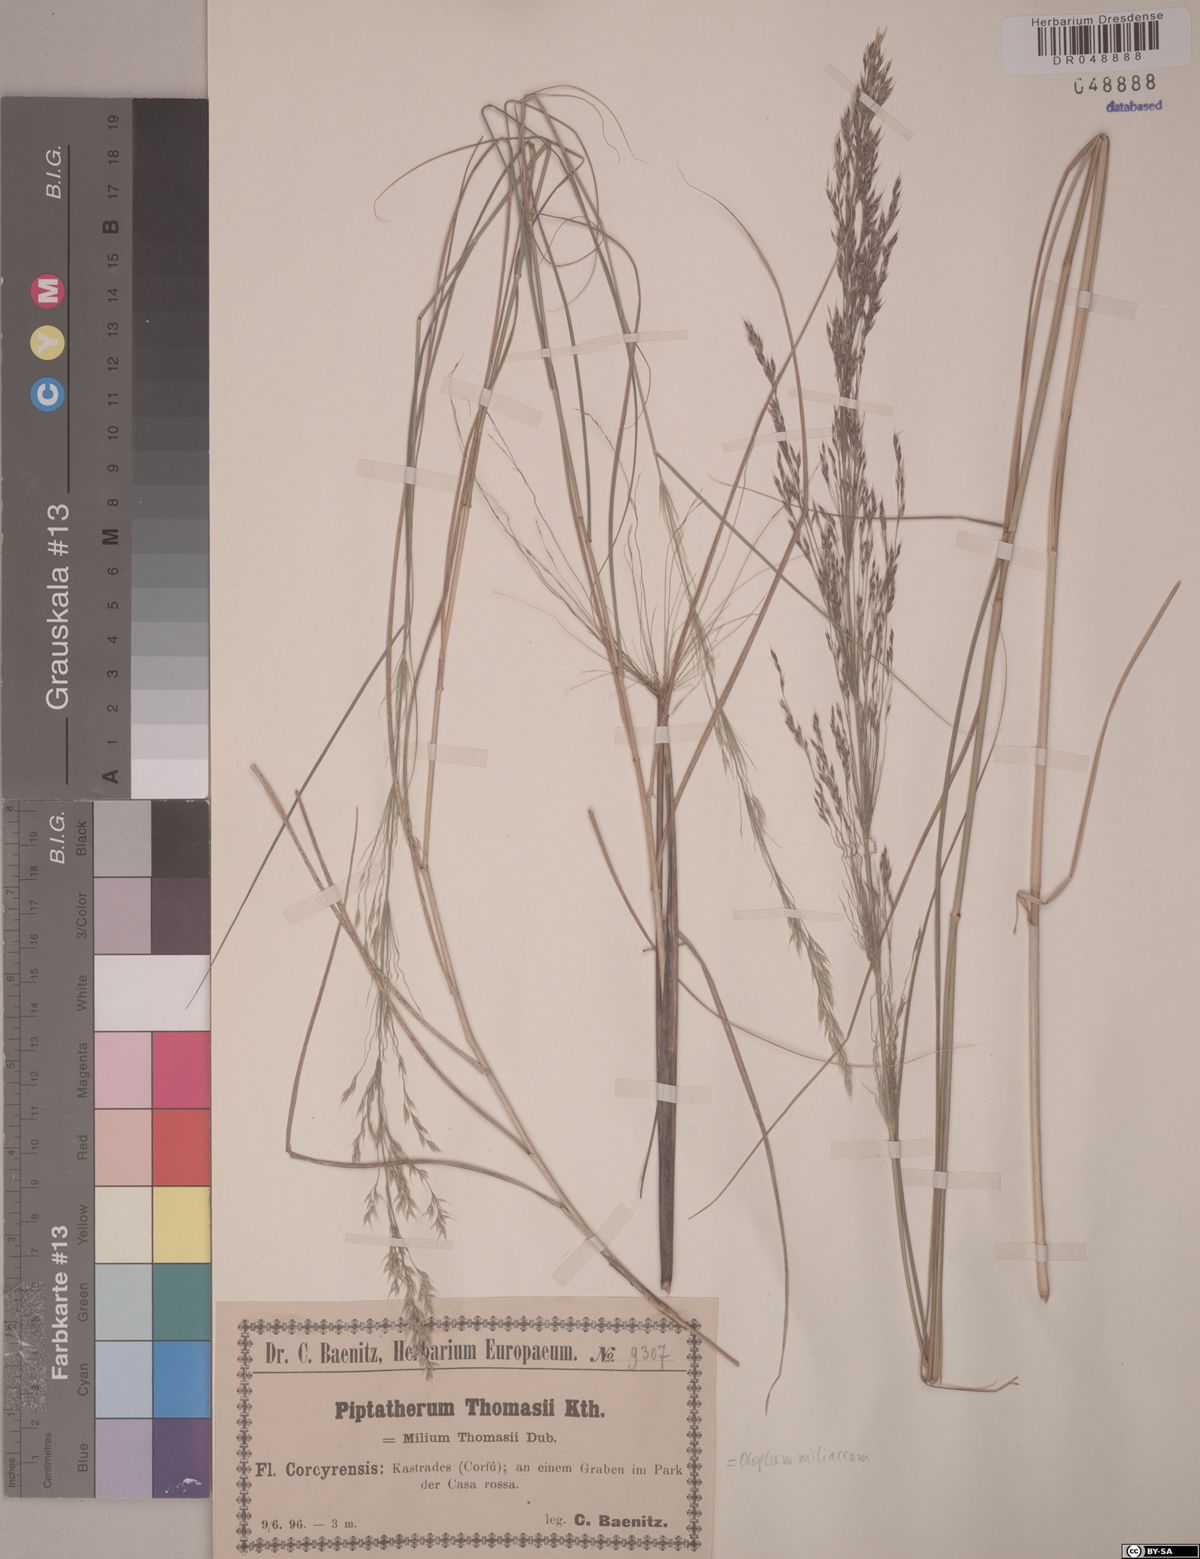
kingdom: Plantae
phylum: Tracheophyta
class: Liliopsida
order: Poales
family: Poaceae
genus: Oloptum
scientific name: Oloptum miliaceum
